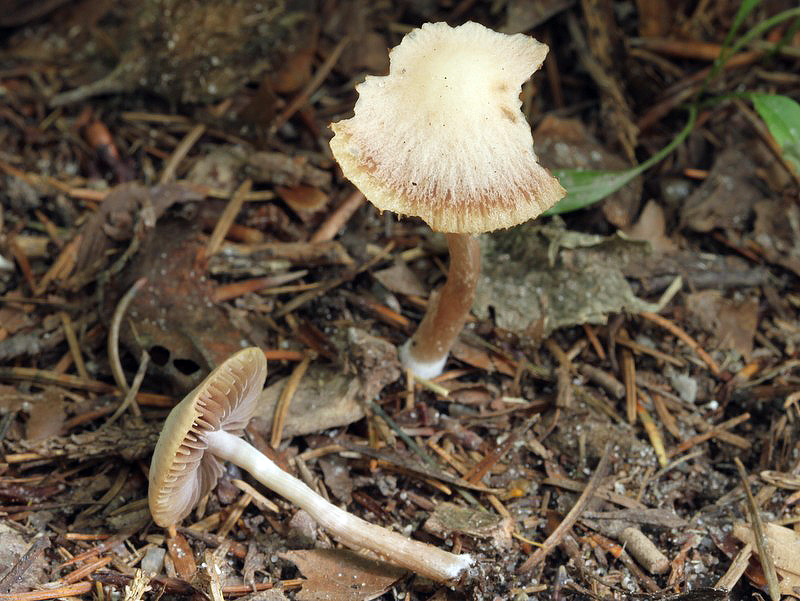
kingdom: Fungi
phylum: Basidiomycota
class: Agaricomycetes
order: Agaricales
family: Psathyrellaceae
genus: Psathyrella
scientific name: Psathyrella bipellis
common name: vinrød mørkhat
